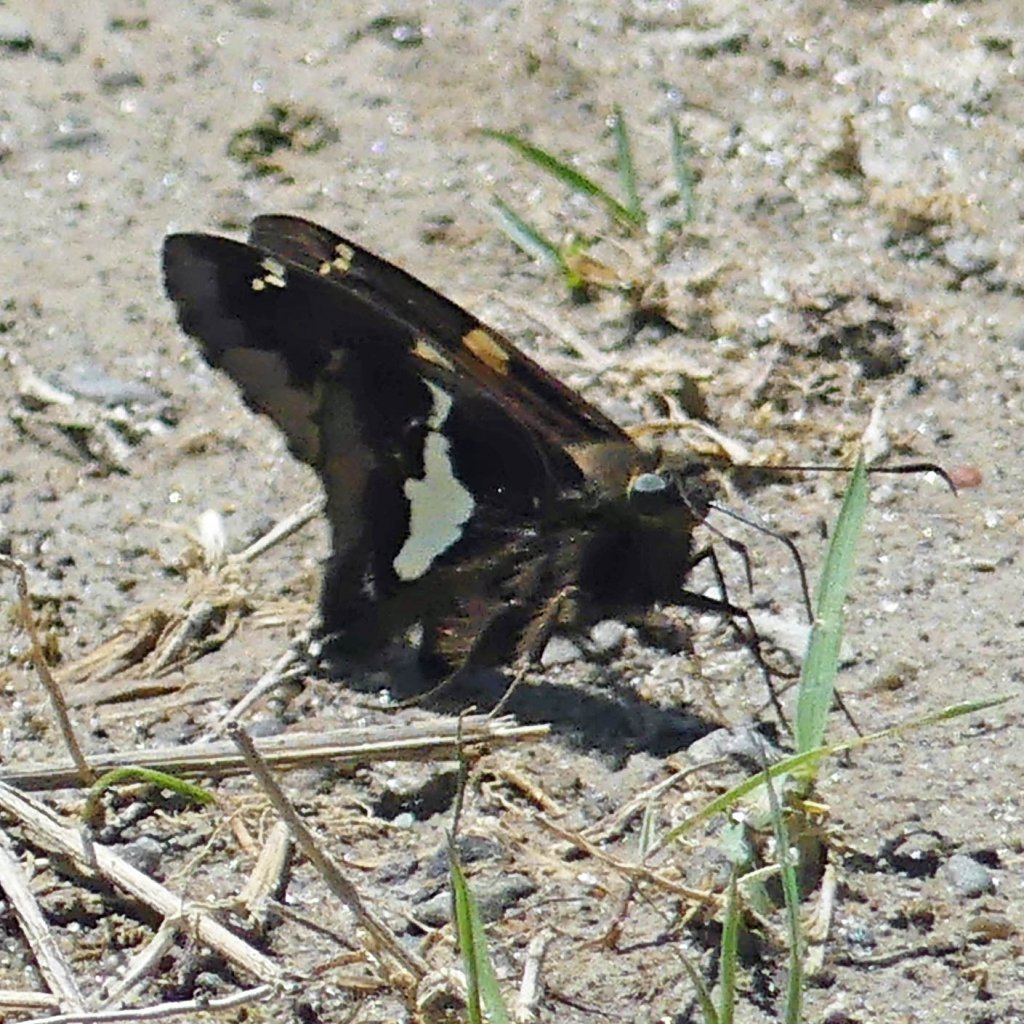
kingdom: Animalia
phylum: Arthropoda
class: Insecta
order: Lepidoptera
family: Hesperiidae
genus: Epargyreus
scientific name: Epargyreus clarus
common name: Silver-spotted Skipper
